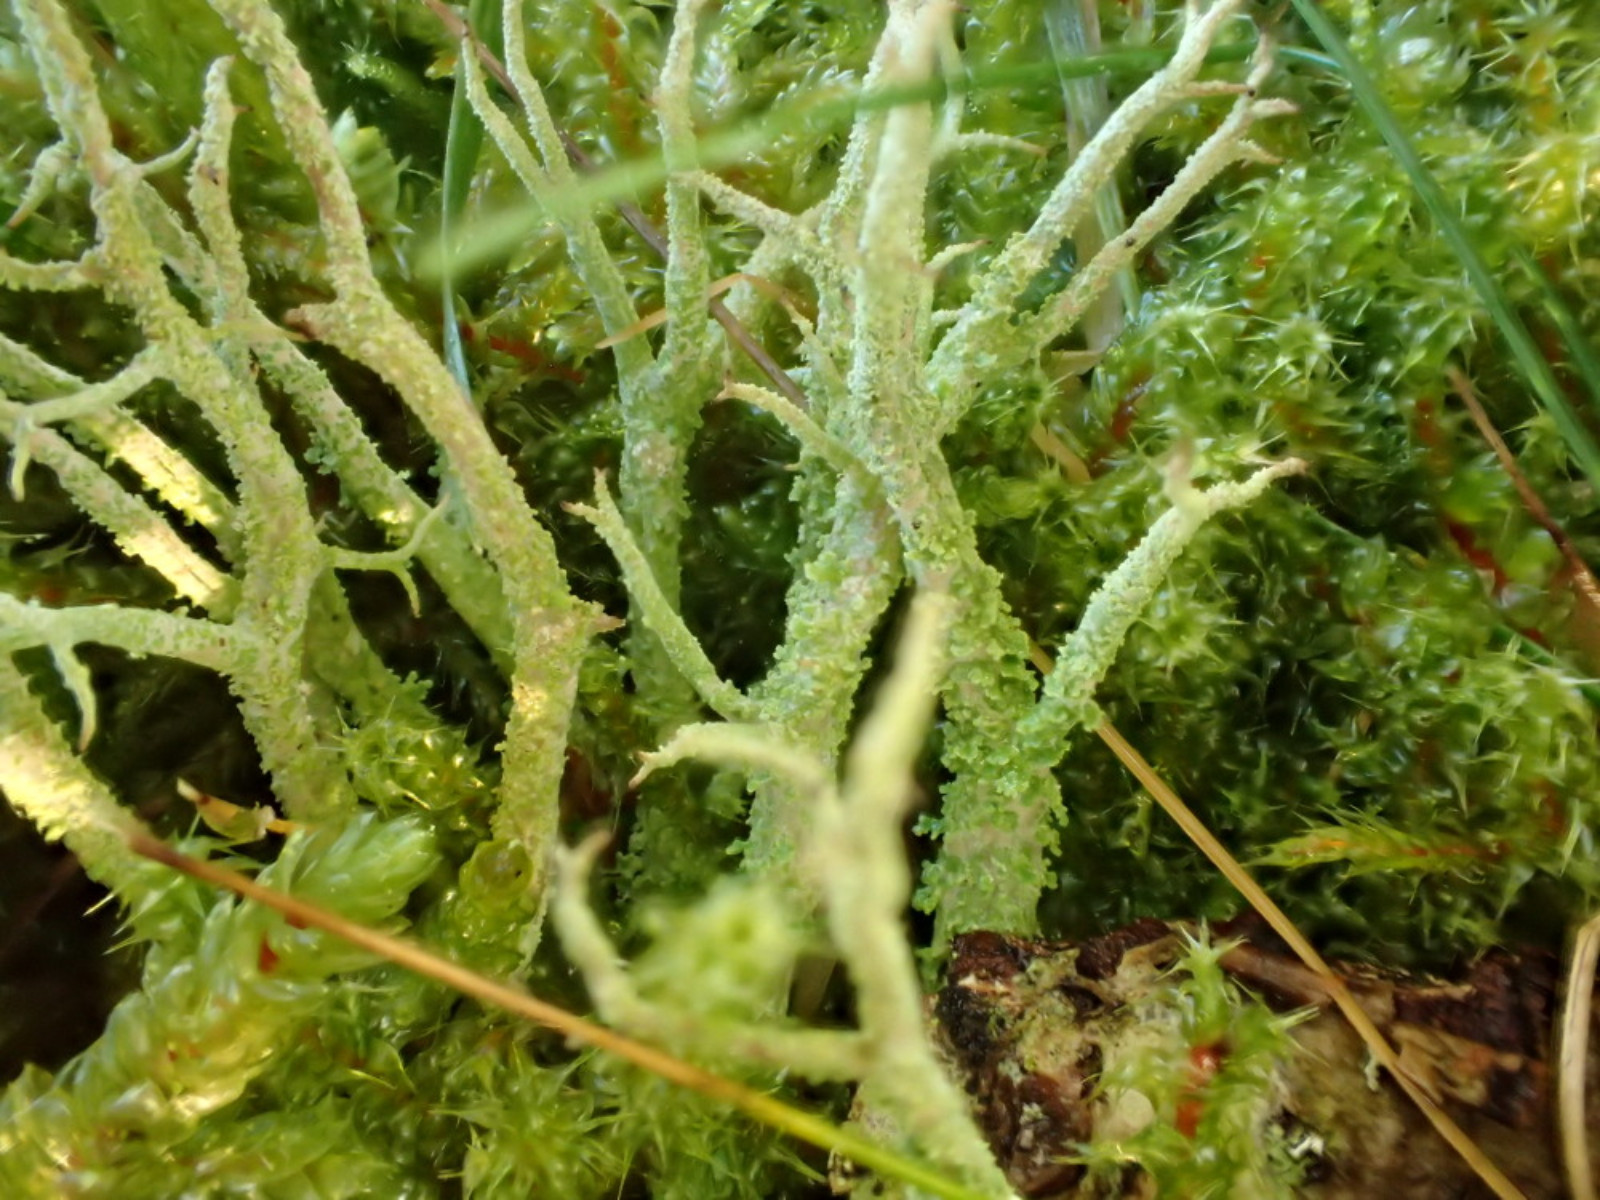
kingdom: Fungi
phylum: Ascomycota
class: Lecanoromycetes
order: Lecanorales
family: Cladoniaceae
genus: Cladonia
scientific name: Cladonia scabriuscula
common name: ru bægerlav
